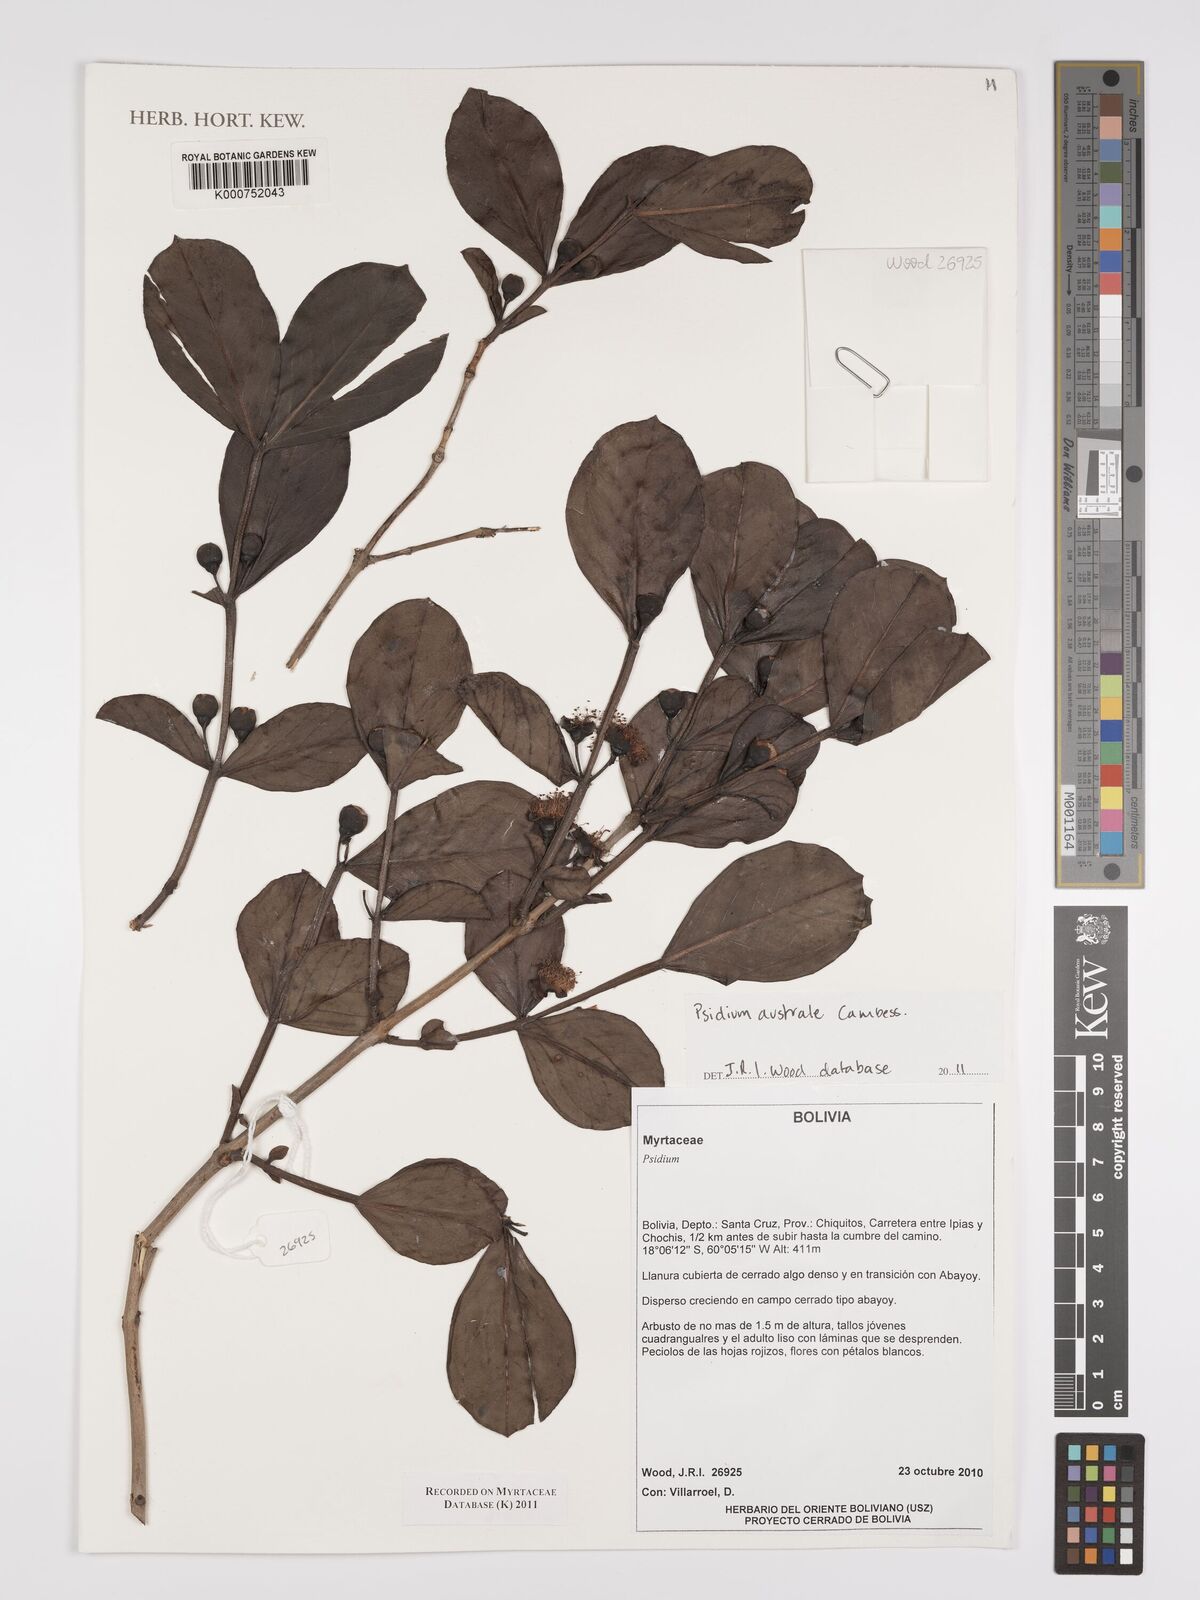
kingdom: Plantae
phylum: Tracheophyta
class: Magnoliopsida
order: Myrtales
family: Myrtaceae
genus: Psidium
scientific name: Psidium australe
